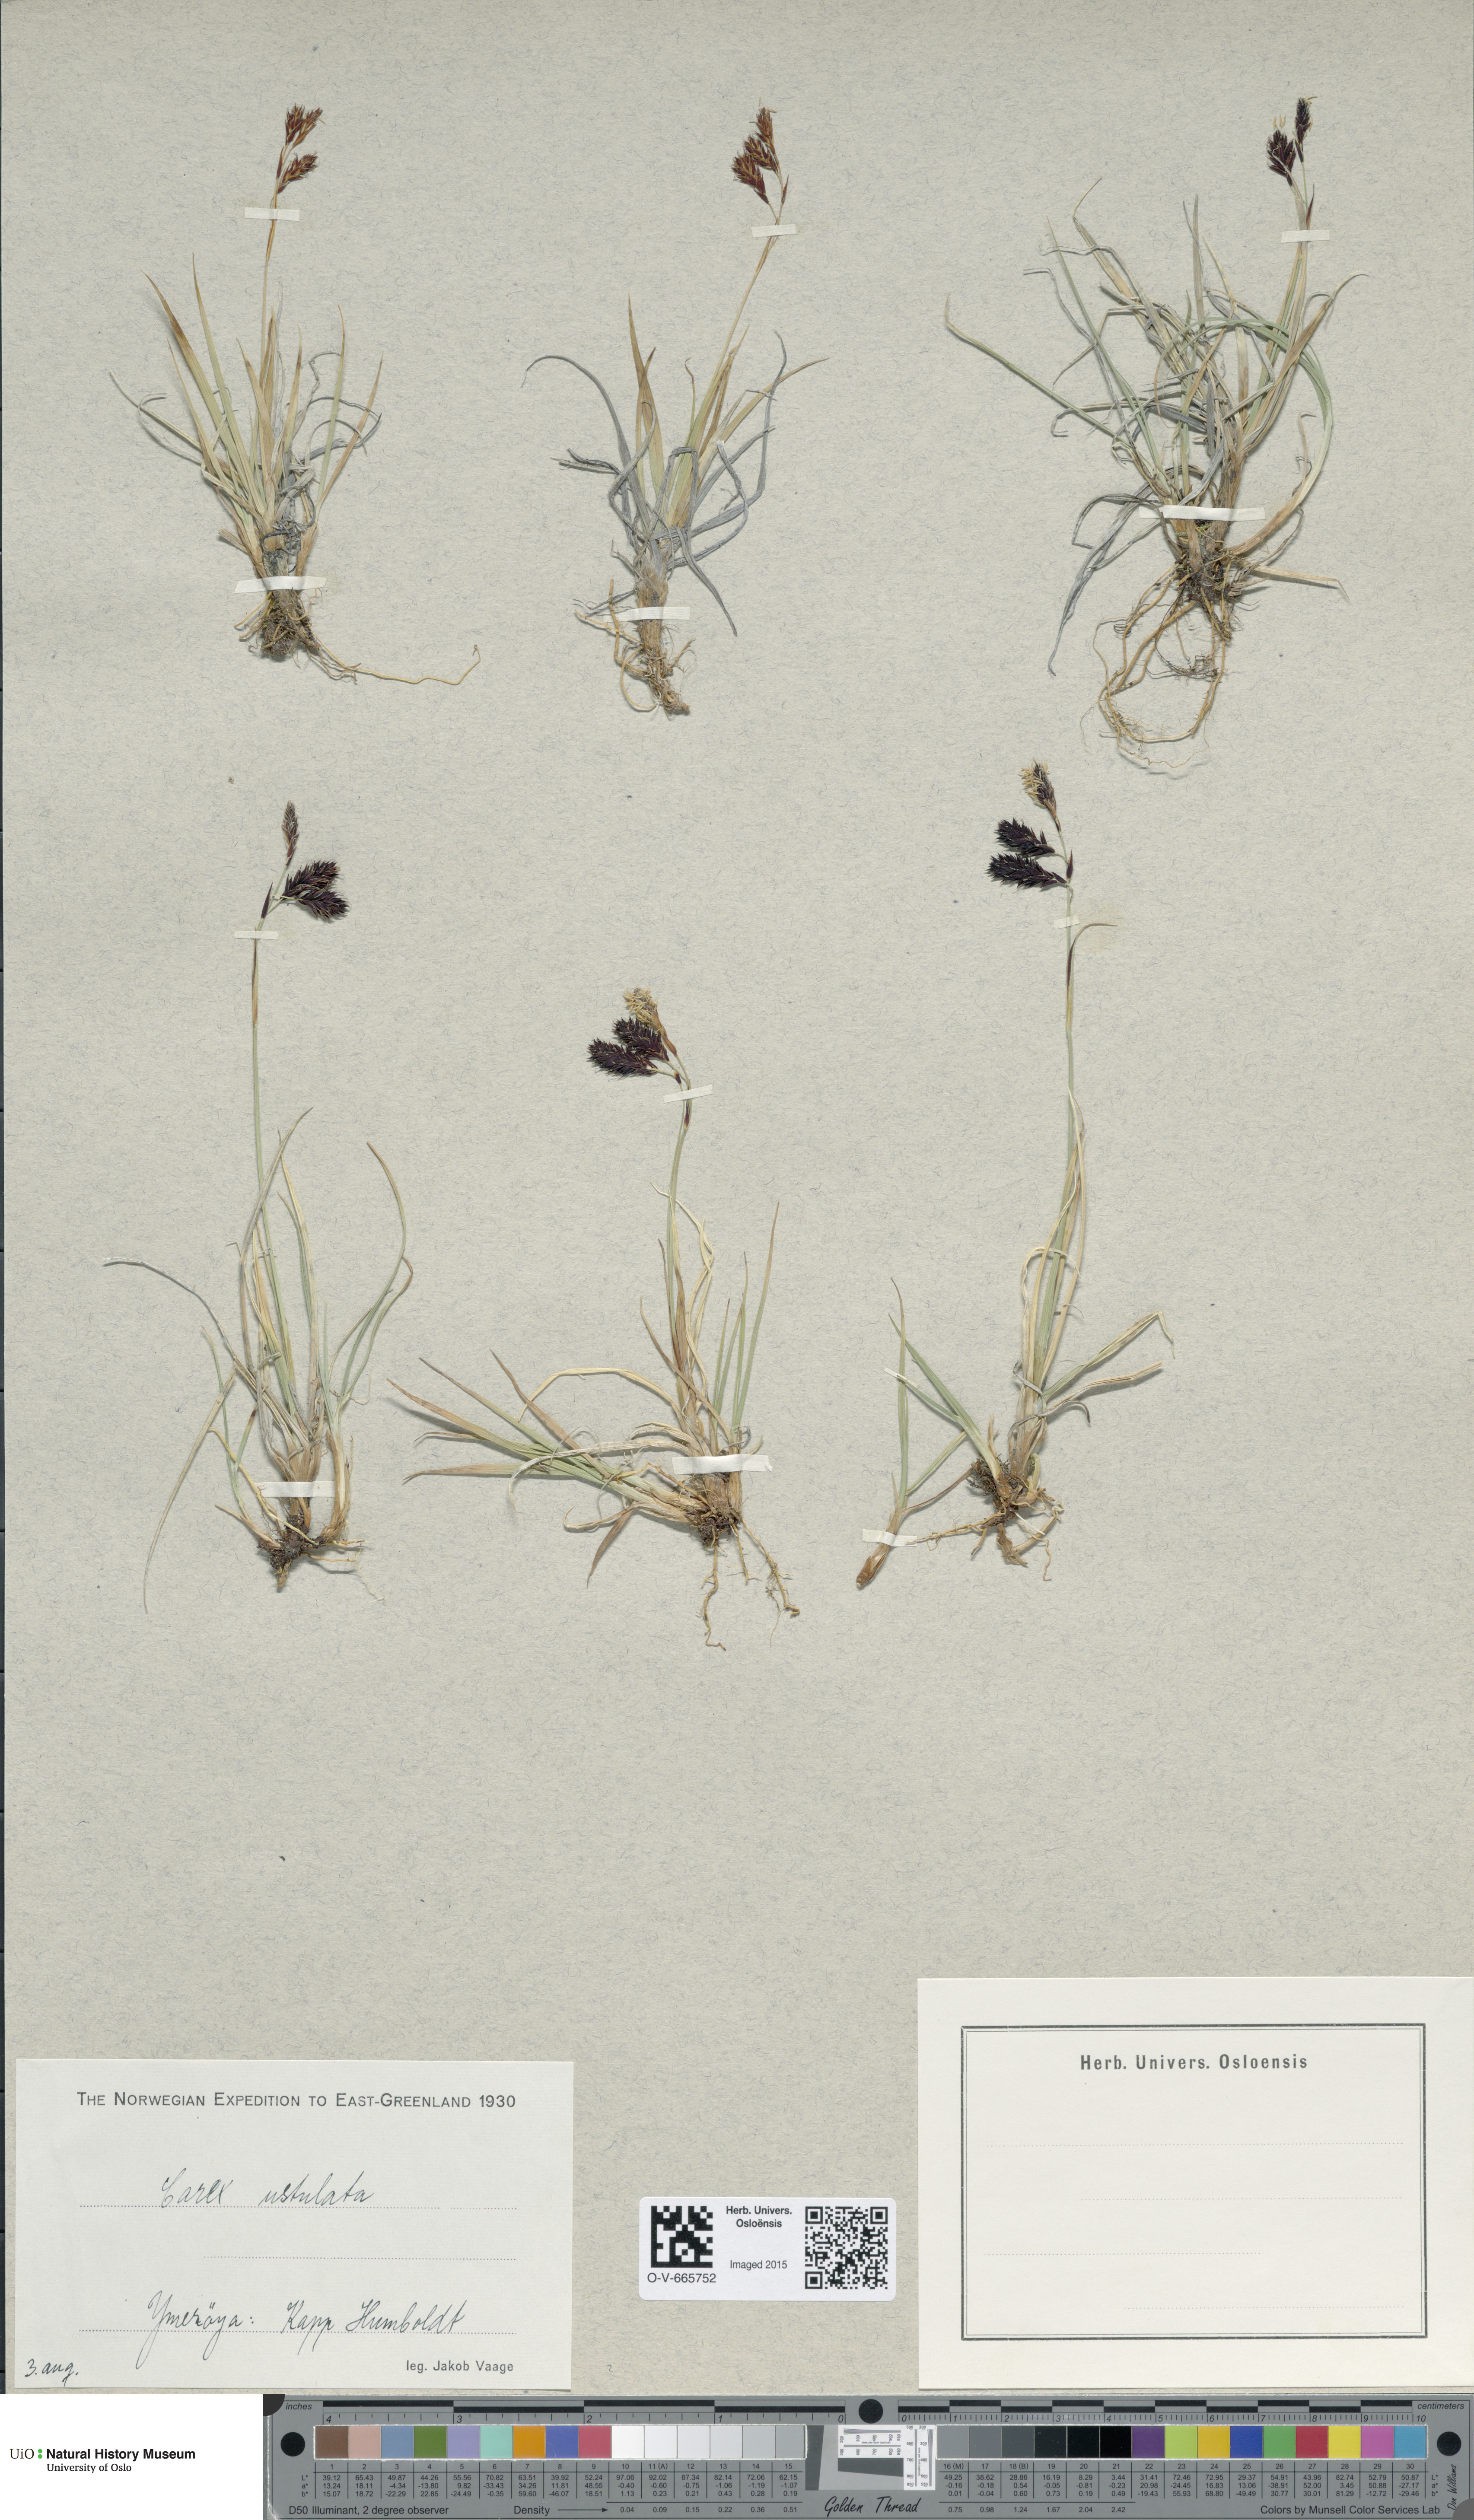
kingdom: Plantae
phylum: Tracheophyta
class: Liliopsida
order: Poales
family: Cyperaceae
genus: Carex
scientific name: Carex atrofusca
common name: Scorched alpine-sedge
